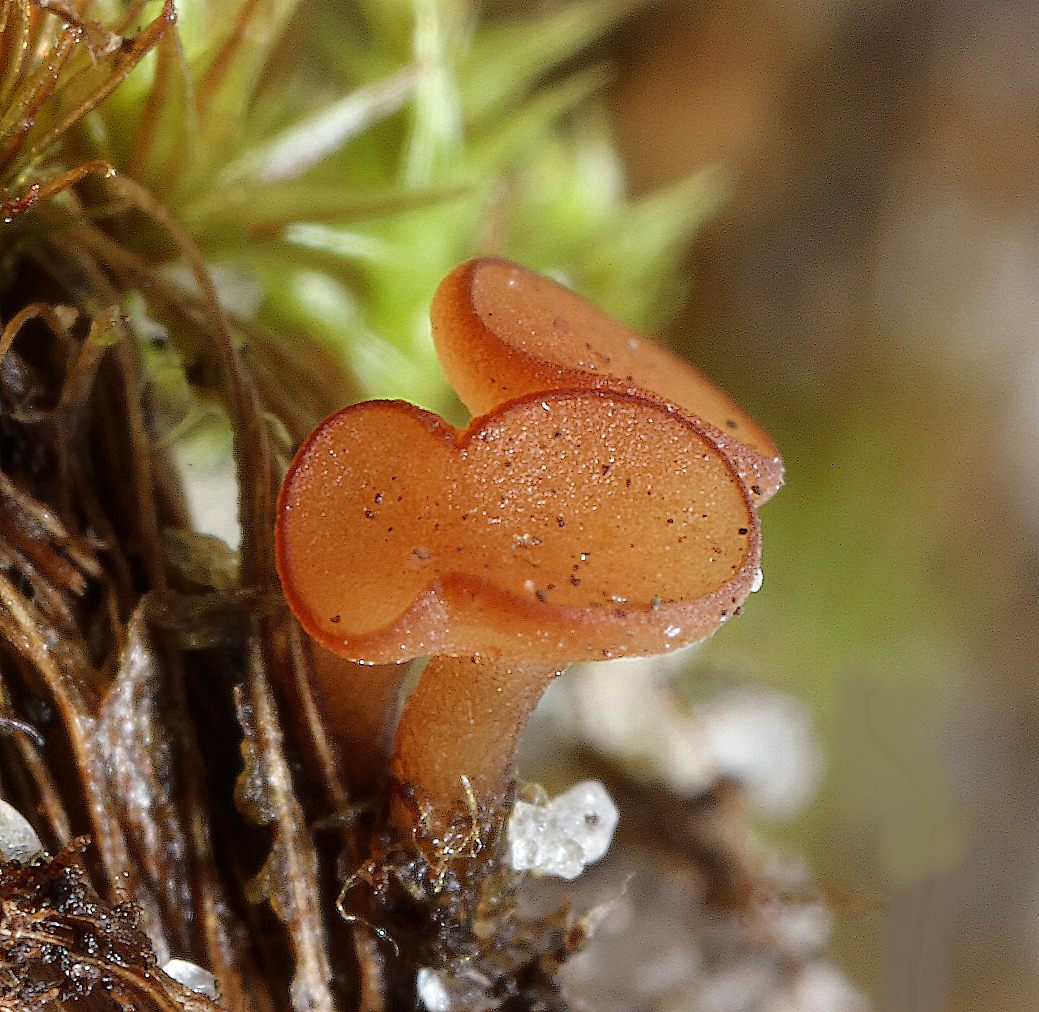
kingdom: Fungi
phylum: Ascomycota
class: Leotiomycetes
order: Helotiales
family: Sclerotiniaceae
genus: Clarireedia
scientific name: Clarireedia
